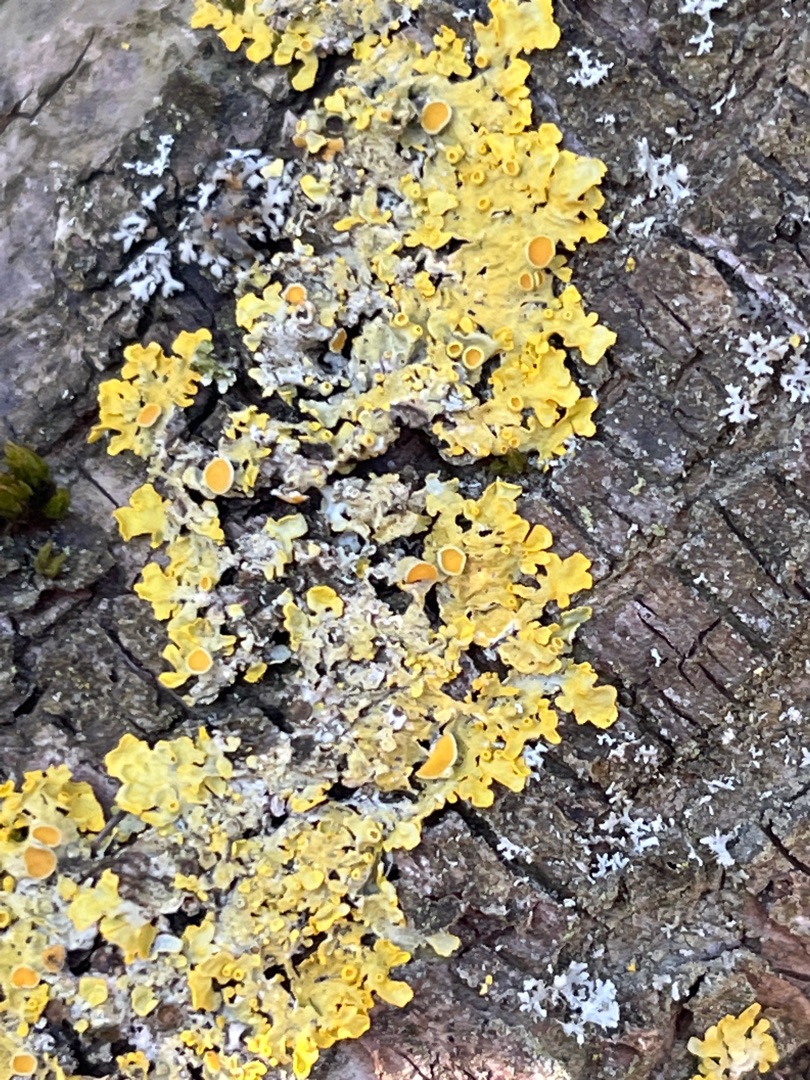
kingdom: Fungi
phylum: Ascomycota
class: Lecanoromycetes
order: Teloschistales
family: Teloschistaceae
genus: Xanthoria
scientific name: Xanthoria parietina
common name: Almindelig væggelav
